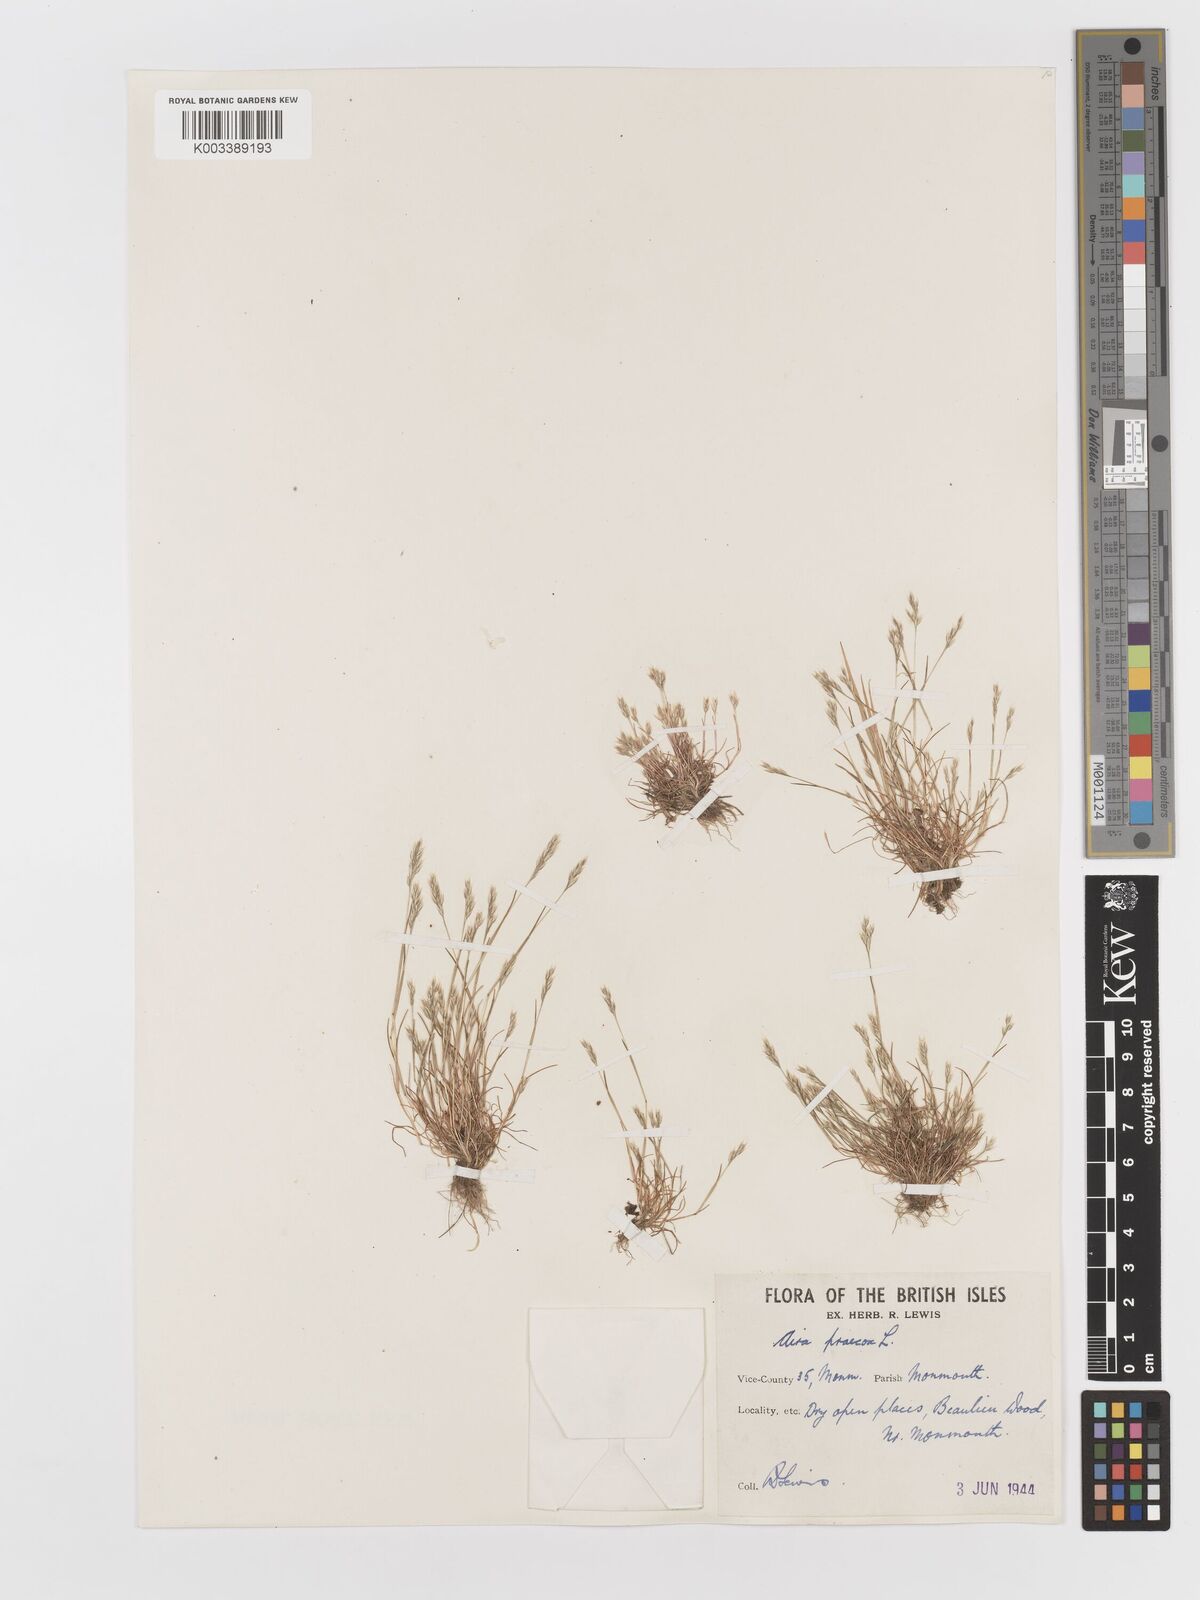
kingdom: Plantae
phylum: Tracheophyta
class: Liliopsida
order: Poales
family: Poaceae
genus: Aira
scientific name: Aira praecox
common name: Early hair-grass
